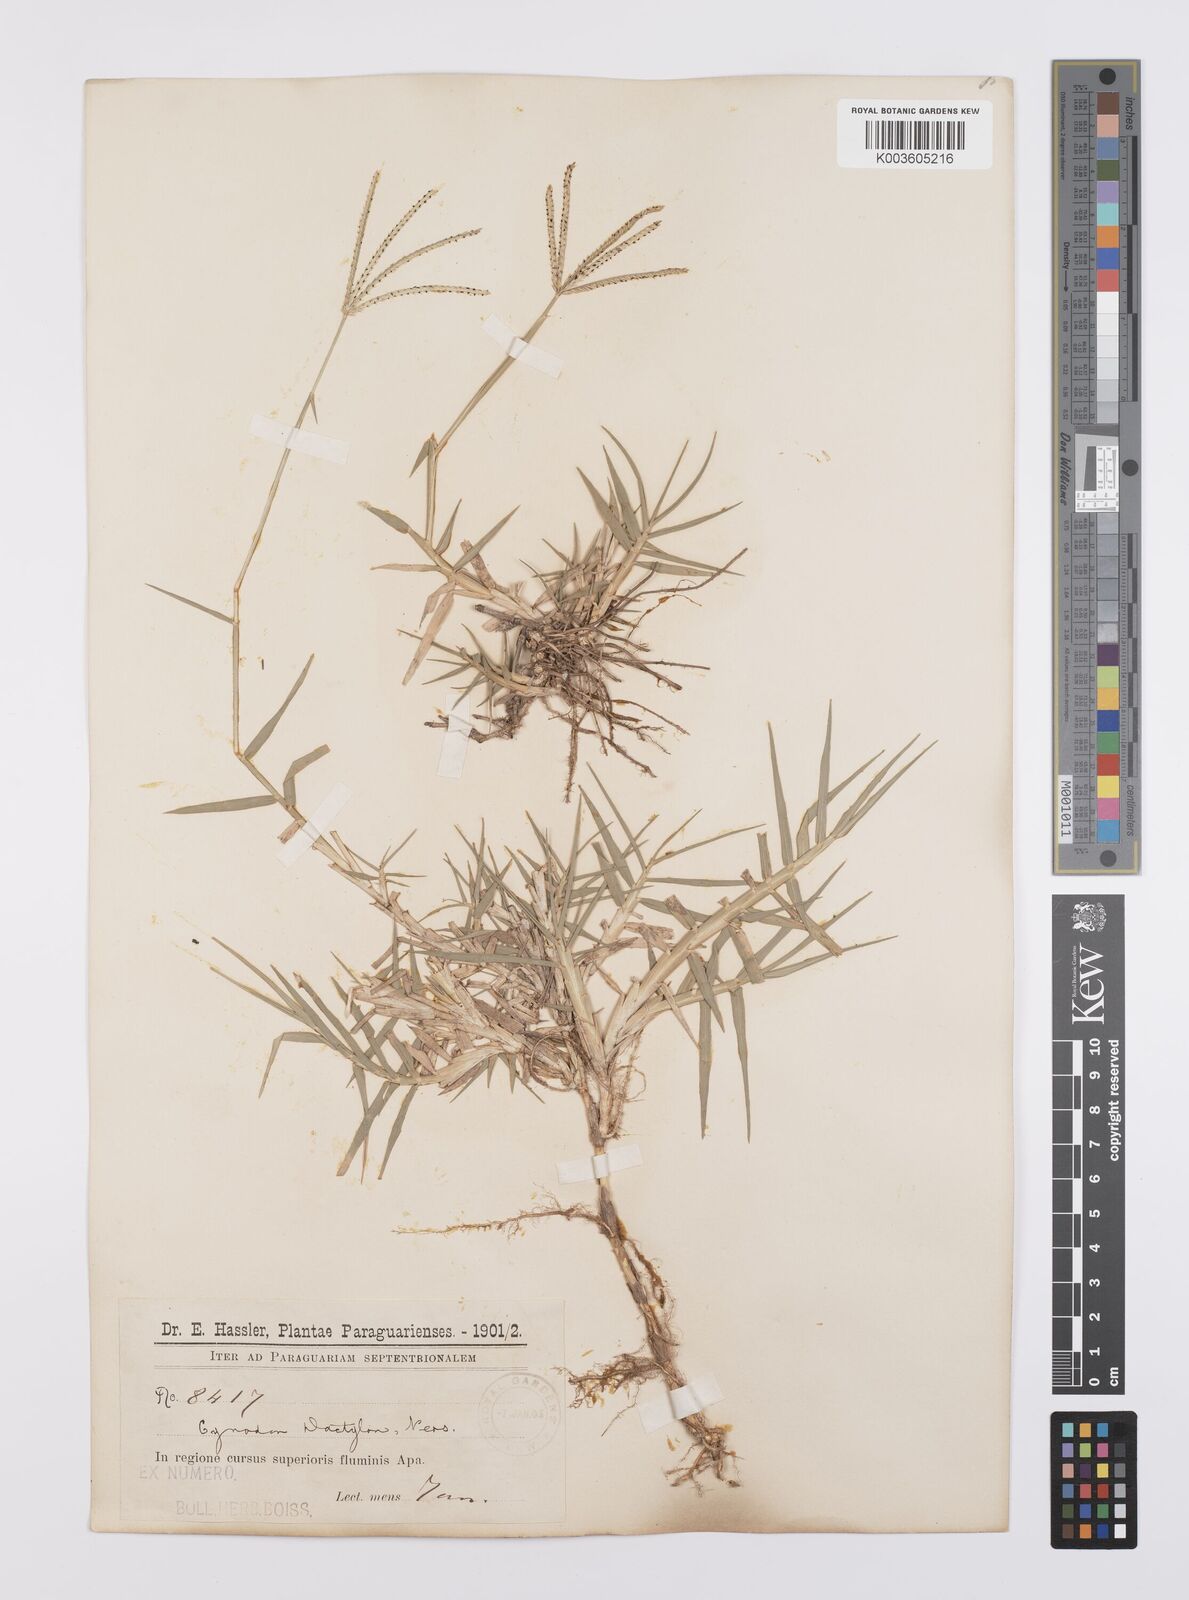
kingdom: Plantae
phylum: Tracheophyta
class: Liliopsida
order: Poales
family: Poaceae
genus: Cynodon
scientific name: Cynodon dactylon
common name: Bermuda grass
